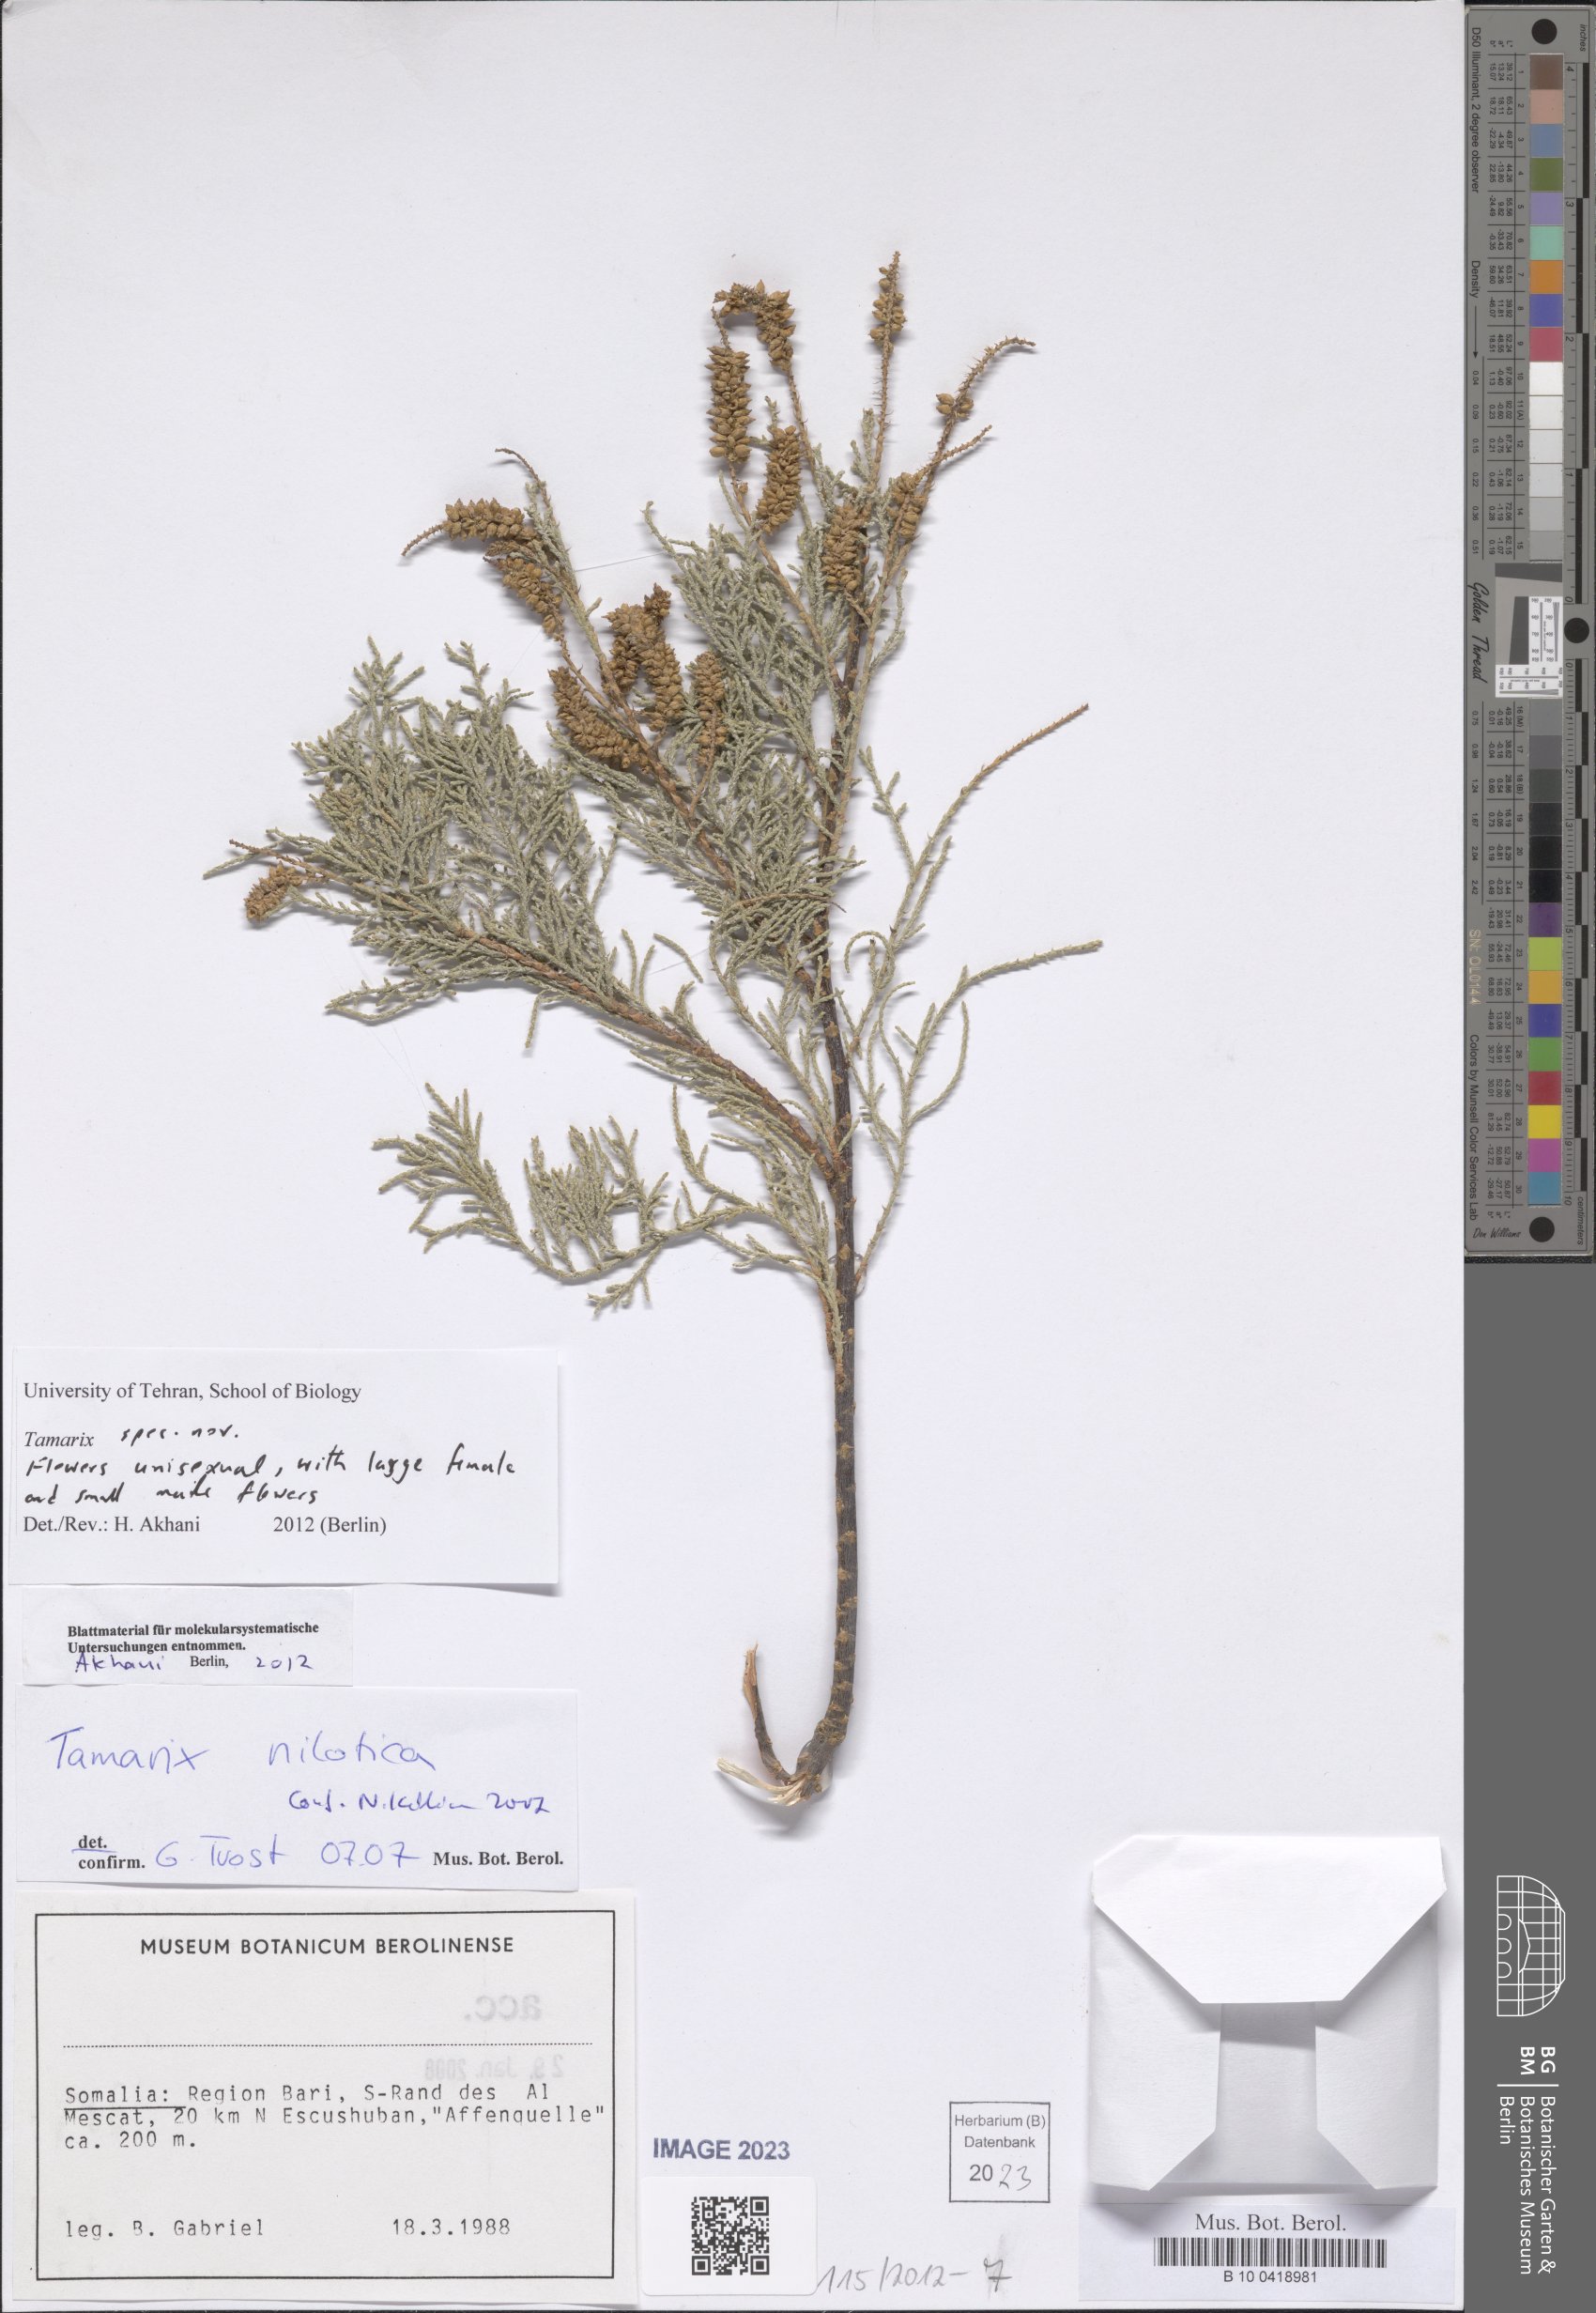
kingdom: Plantae
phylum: Tracheophyta
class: Magnoliopsida
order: Caryophyllales
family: Tamaricaceae
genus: Tamarix
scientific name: Tamarix
